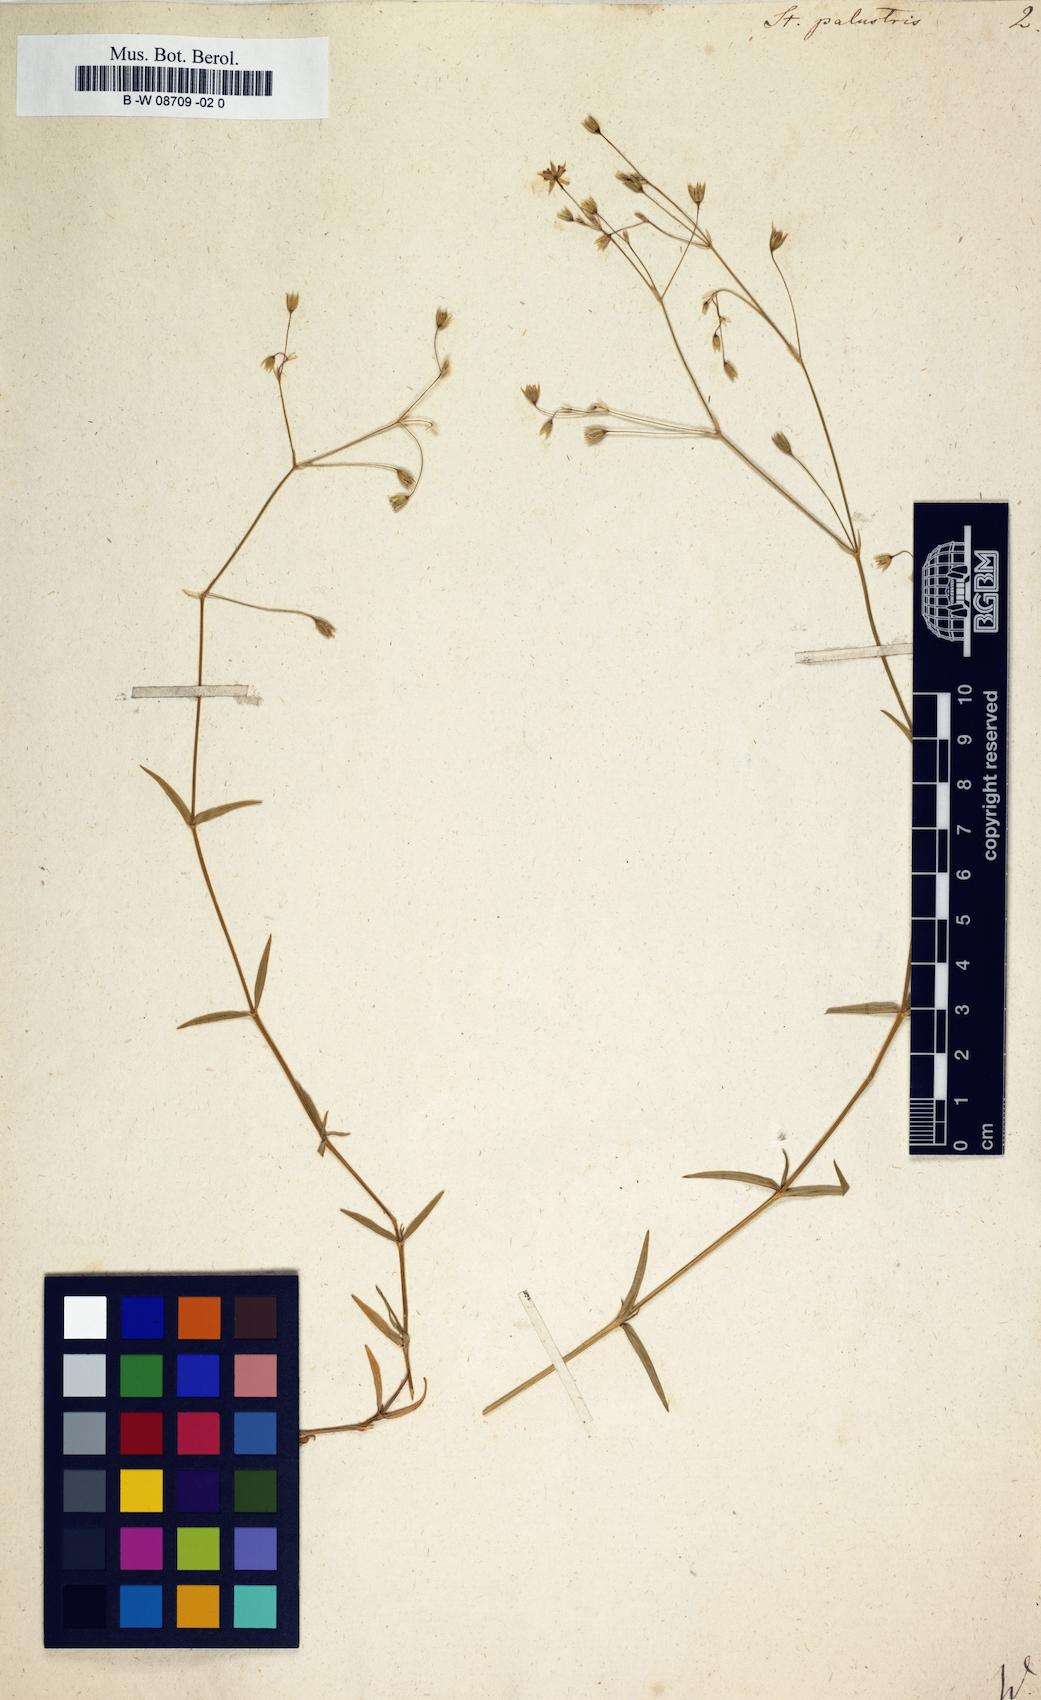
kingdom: Plantae
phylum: Tracheophyta
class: Magnoliopsida
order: Caryophyllales
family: Caryophyllaceae
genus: Stellaria
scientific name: Stellaria palustris
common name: Marsh stitchwort
